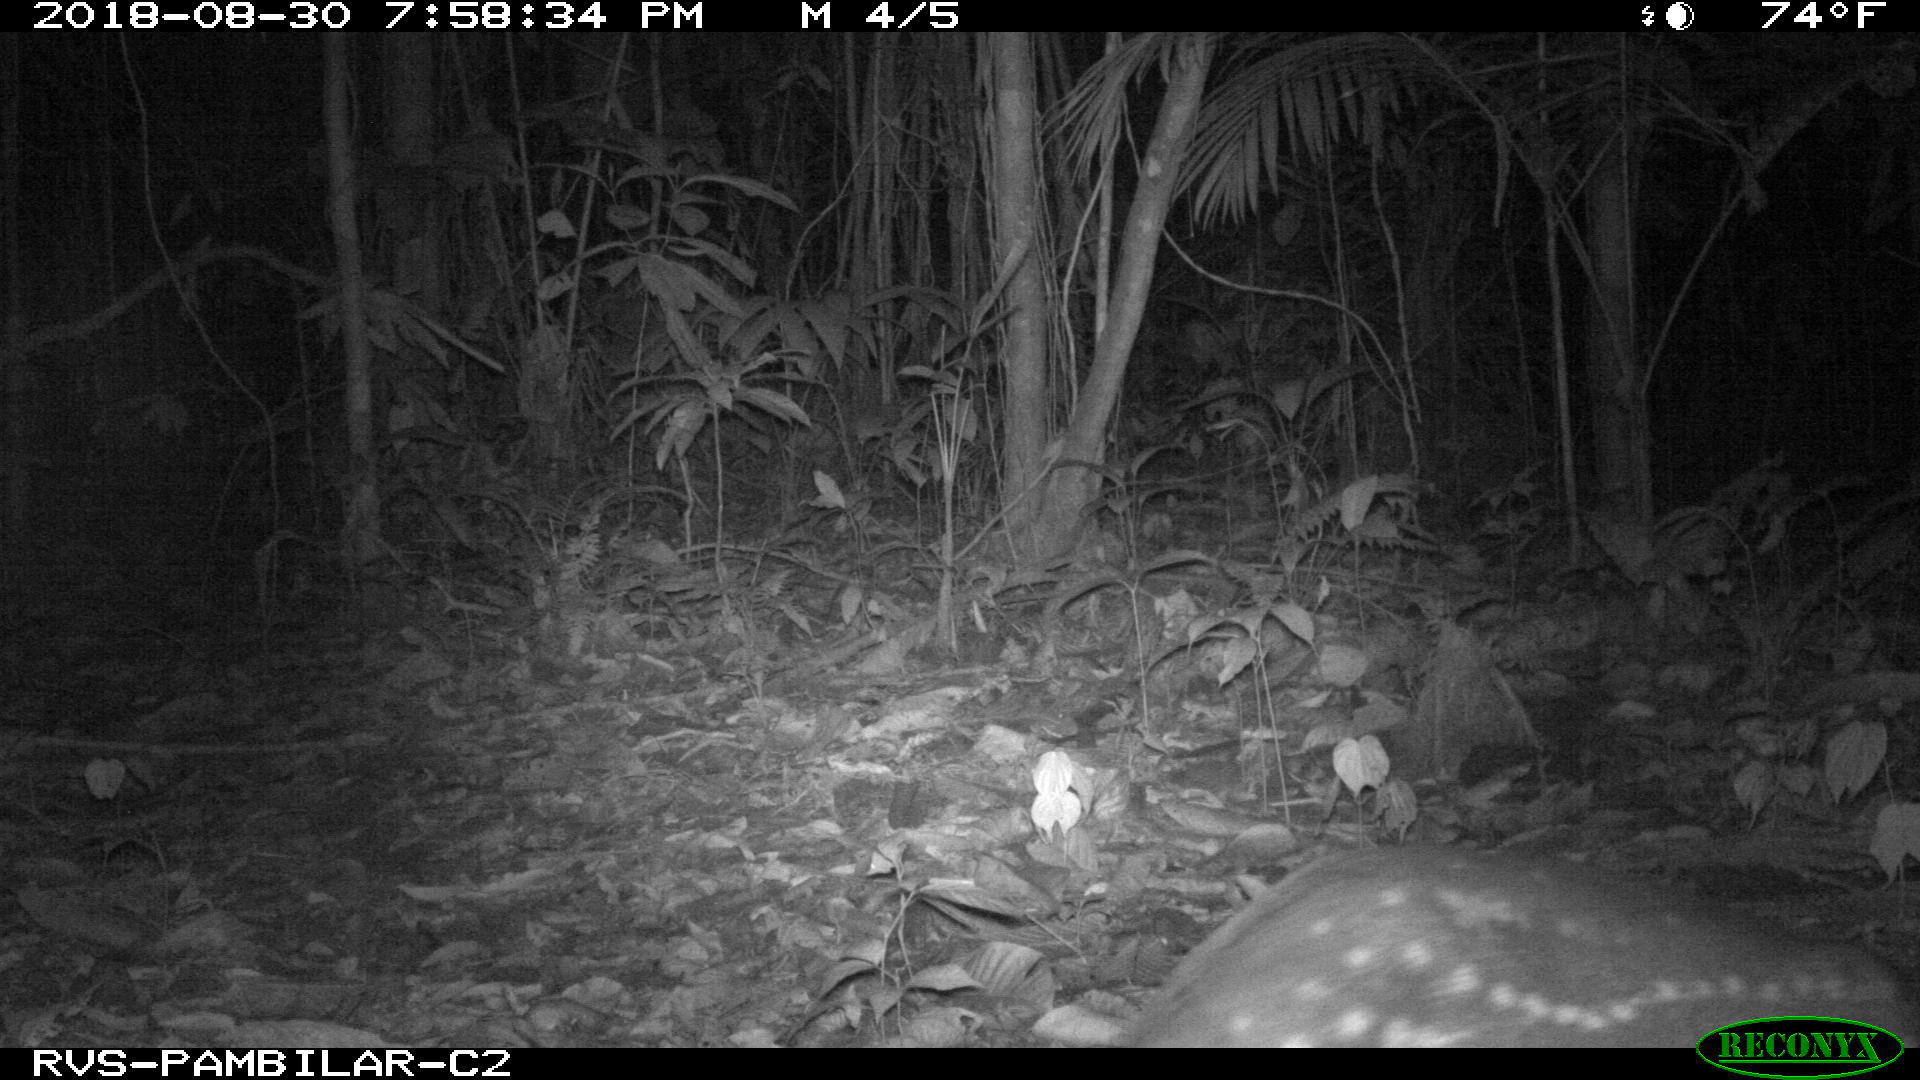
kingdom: Animalia
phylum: Chordata
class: Mammalia
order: Rodentia
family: Cuniculidae
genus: Cuniculus
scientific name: Cuniculus paca
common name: Lowland paca
